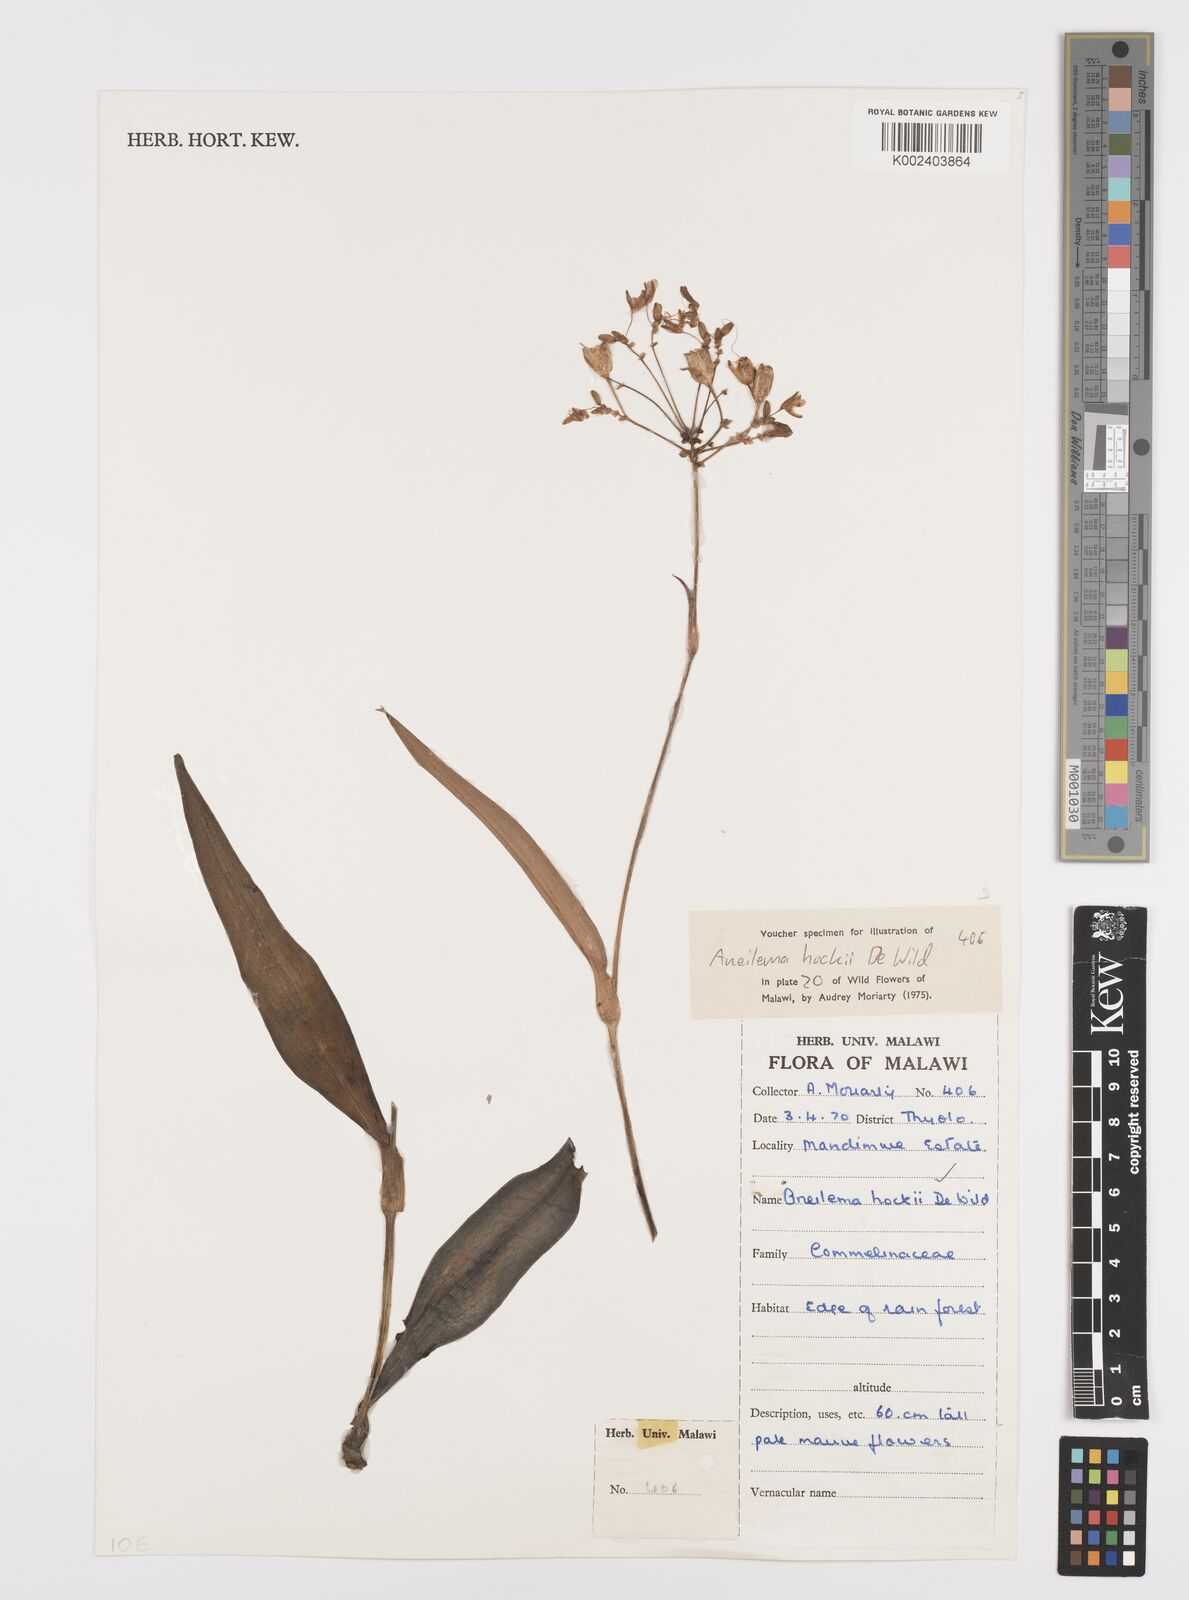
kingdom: Plantae
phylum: Tracheophyta
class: Liliopsida
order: Commelinales
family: Commelinaceae
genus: Aneilema
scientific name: Aneilema hockii
